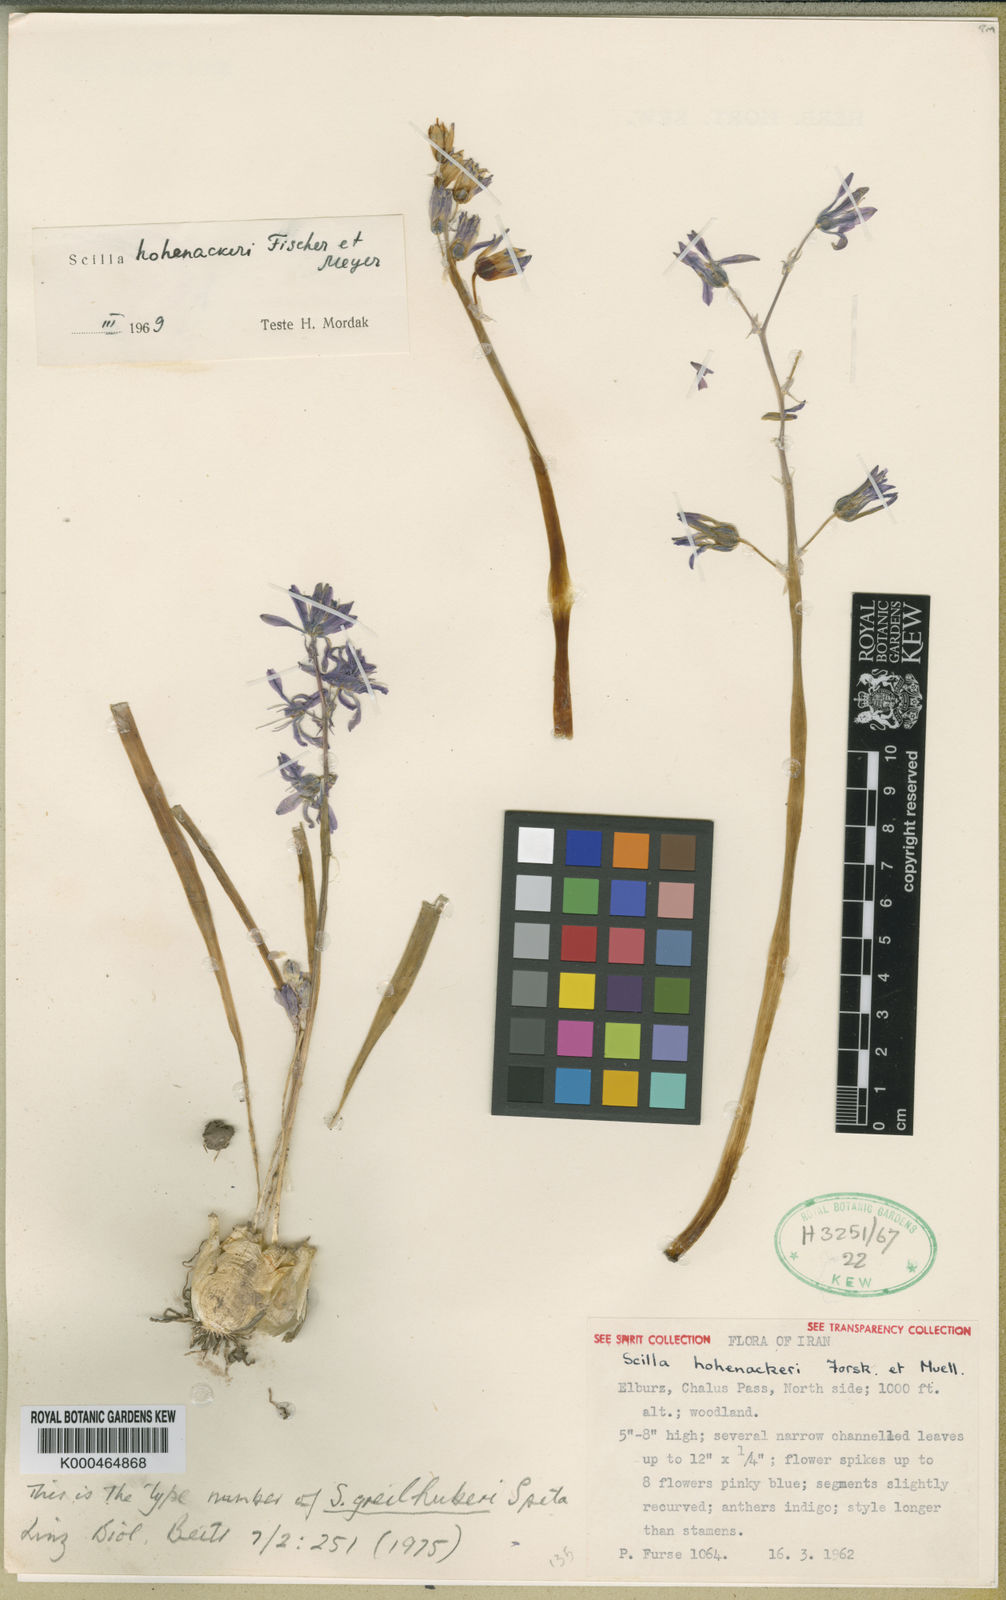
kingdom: Plantae
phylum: Tracheophyta
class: Liliopsida
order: Asparagales
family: Asparagaceae
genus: Fessia
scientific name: Fessia hohenackeri
